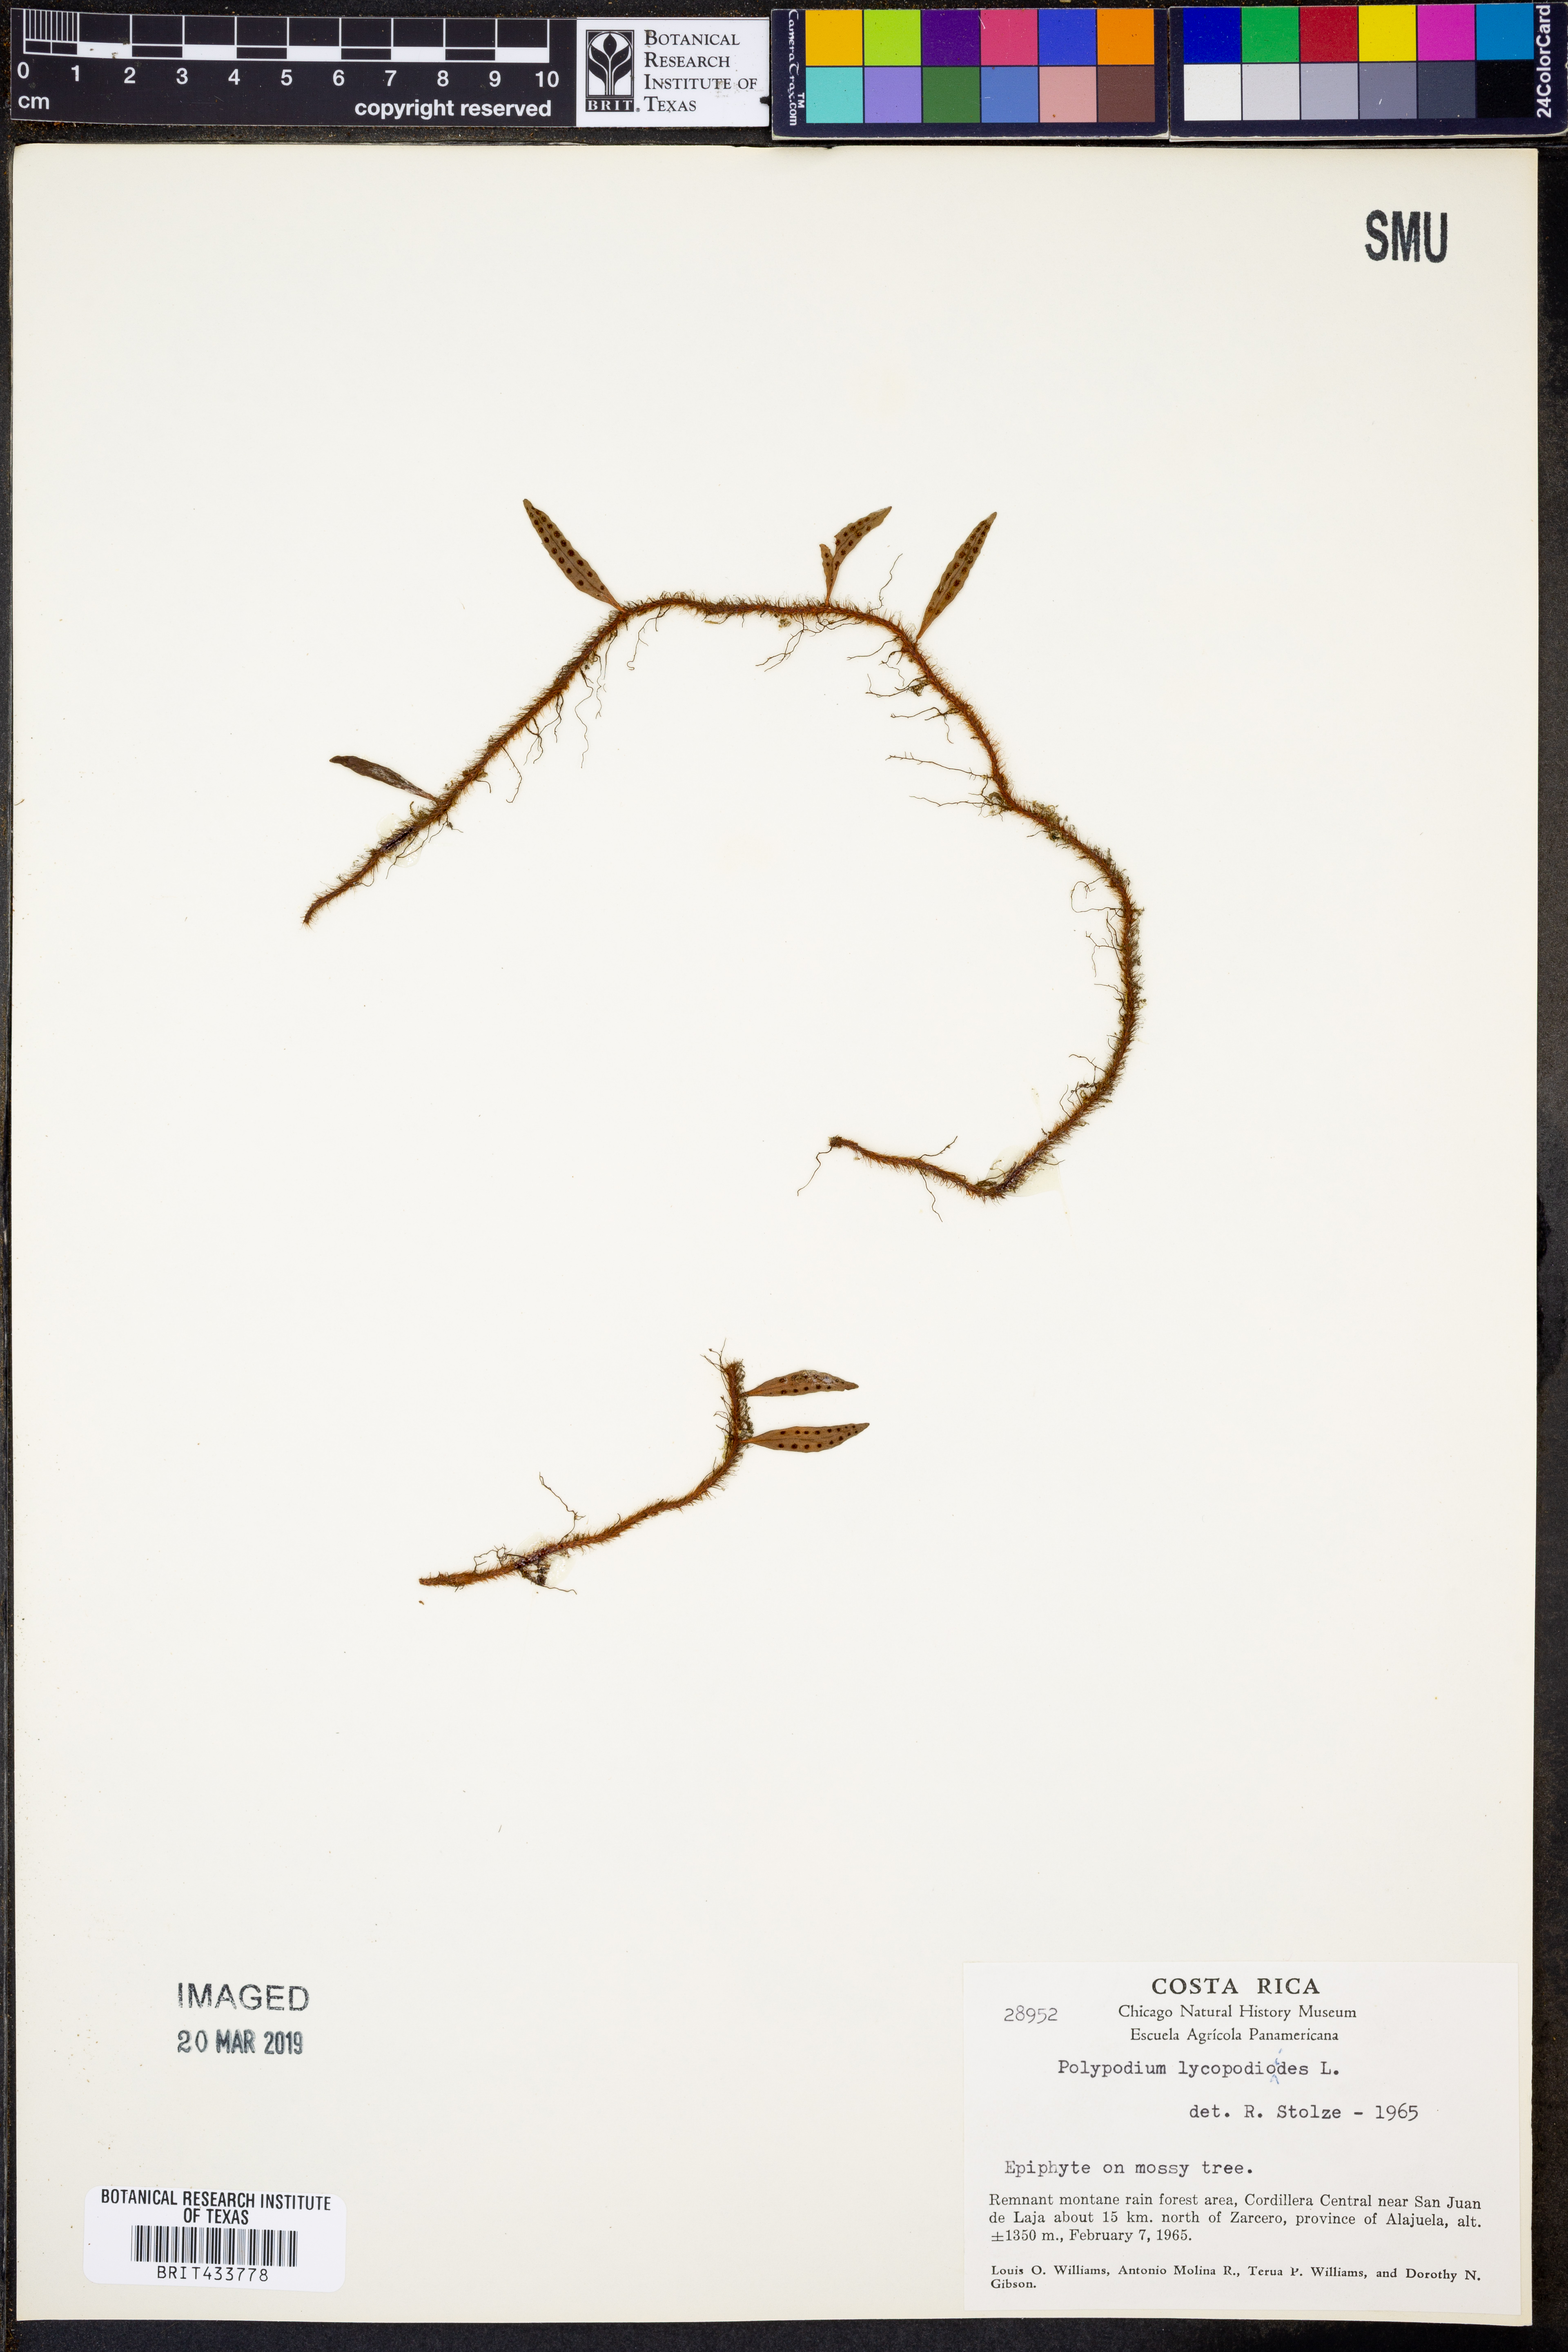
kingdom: Plantae
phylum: Tracheophyta
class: Polypodiopsida
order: Polypodiales
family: Polypodiaceae
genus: Microgramma
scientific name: Microgramma lycopodioides
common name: Bastard catclaw
